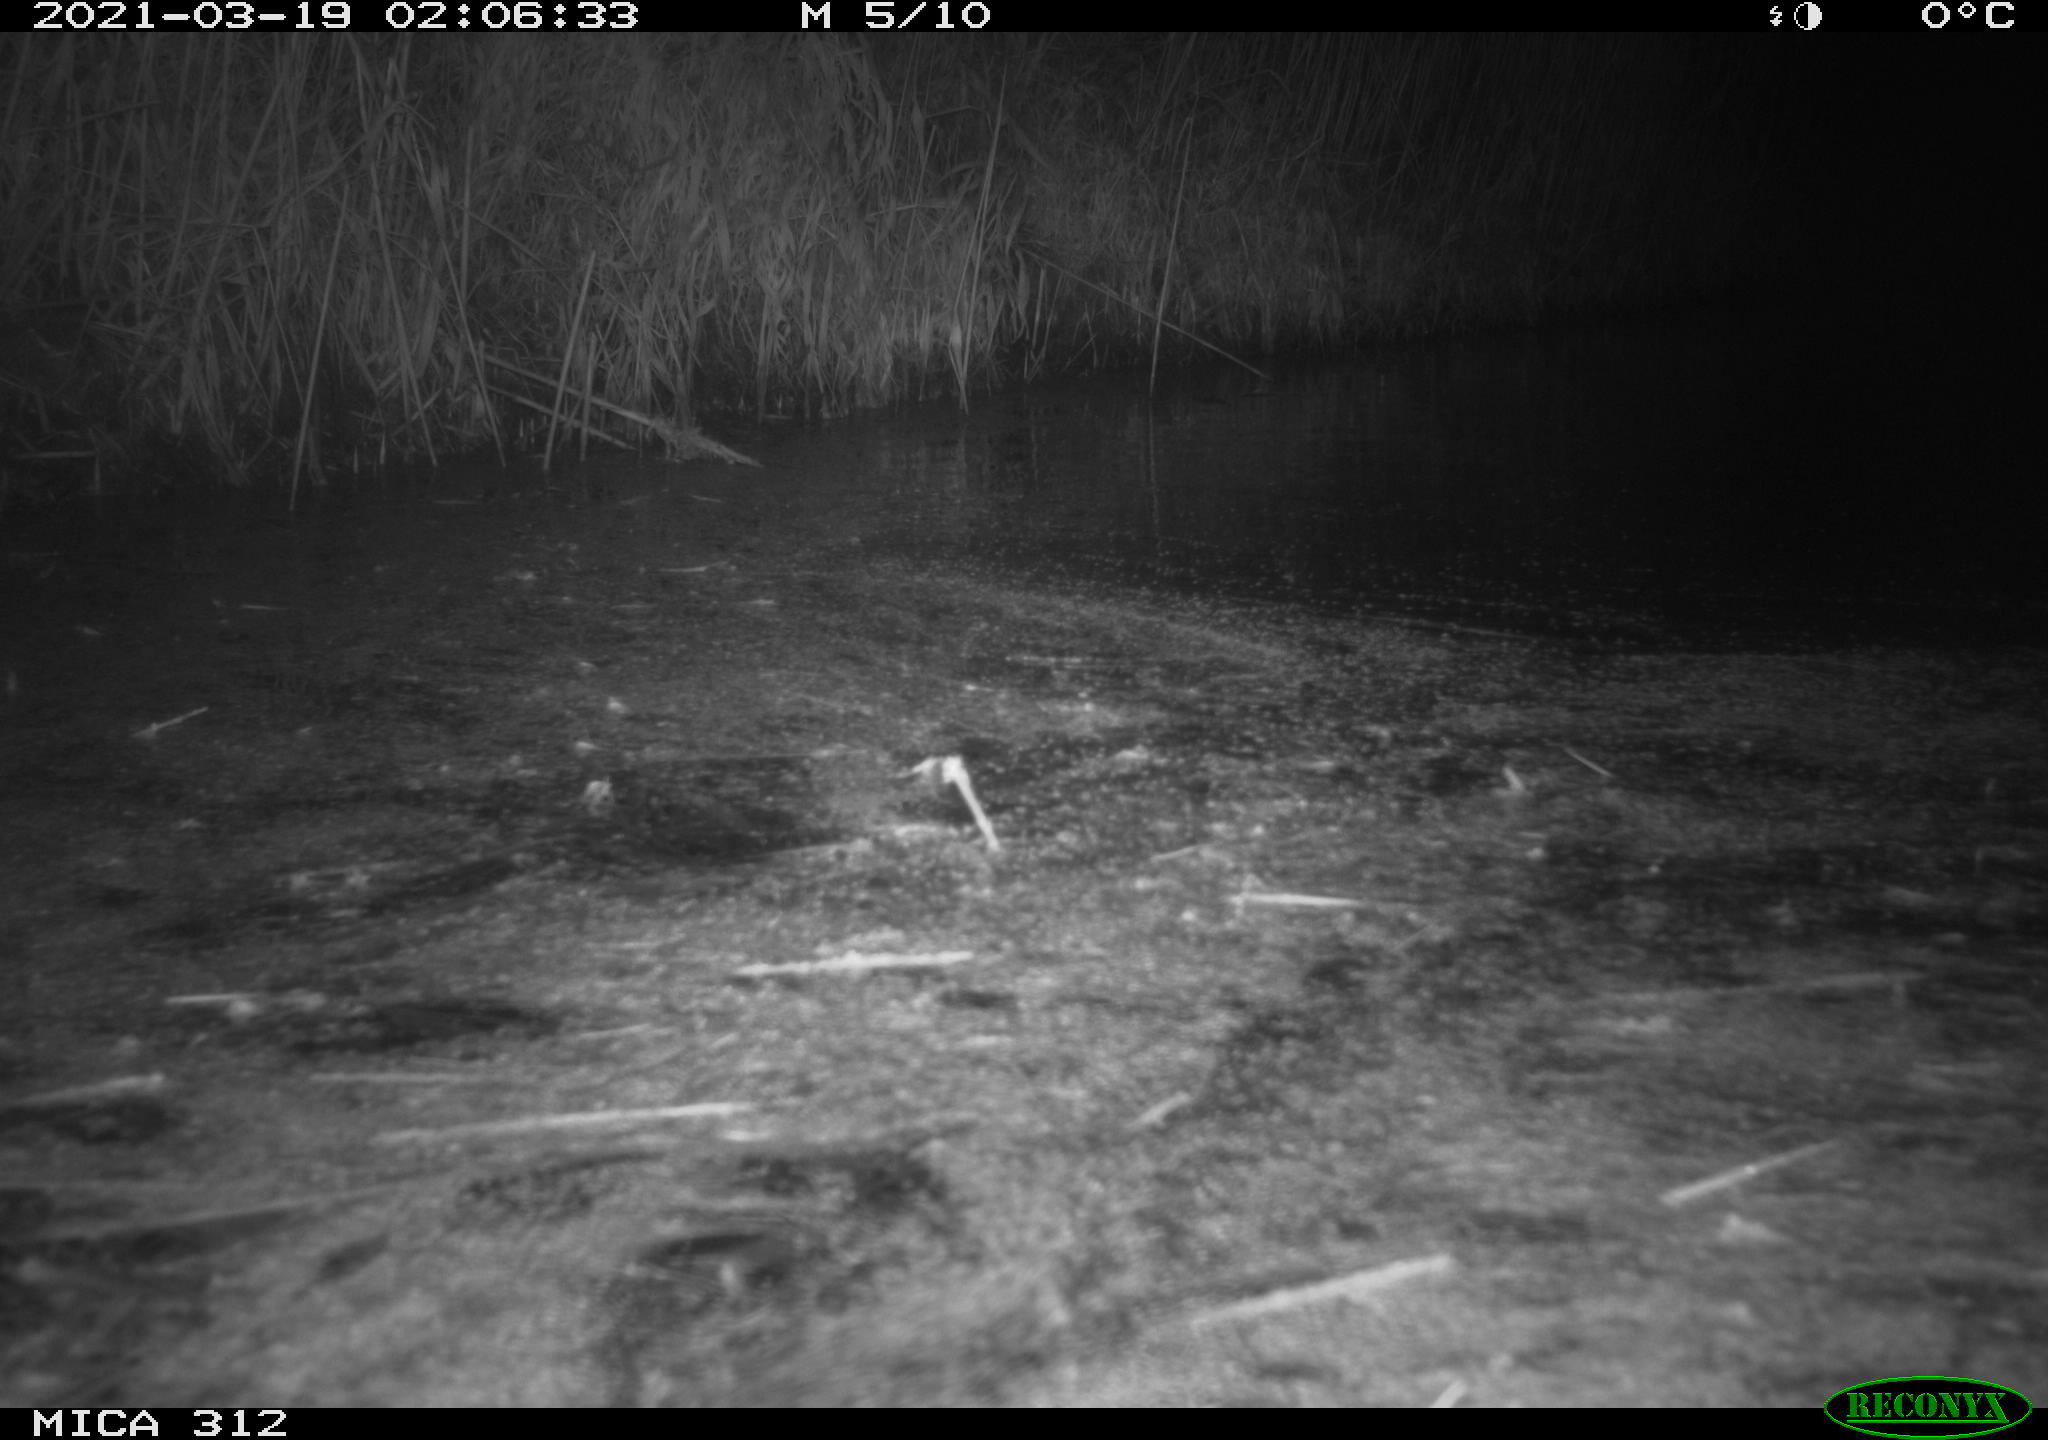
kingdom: Animalia
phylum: Chordata
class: Mammalia
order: Rodentia
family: Cricetidae
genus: Ondatra
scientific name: Ondatra zibethicus
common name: Muskrat
